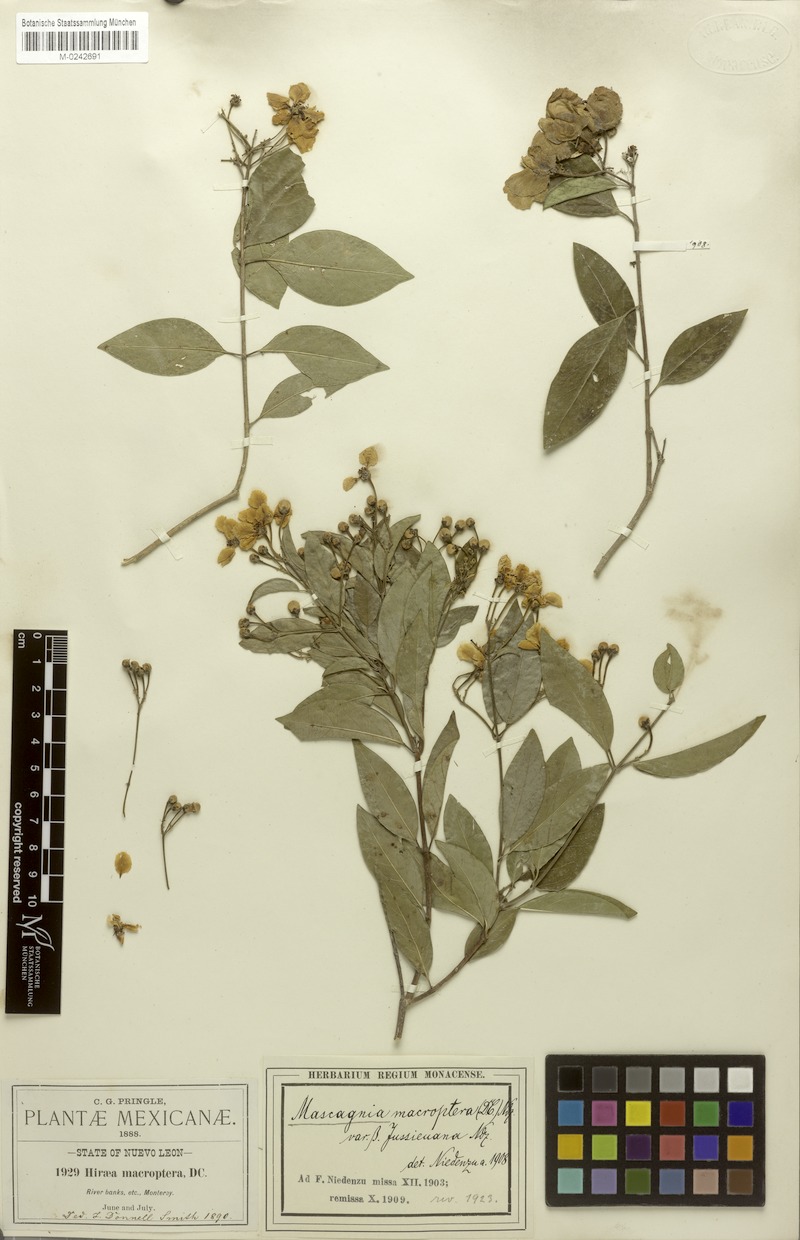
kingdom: Plantae
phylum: Tracheophyta
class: Magnoliopsida
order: Malpighiales
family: Malpighiaceae
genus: Callaeum
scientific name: Callaeum macropterum
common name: Mexican butterfly-vine
